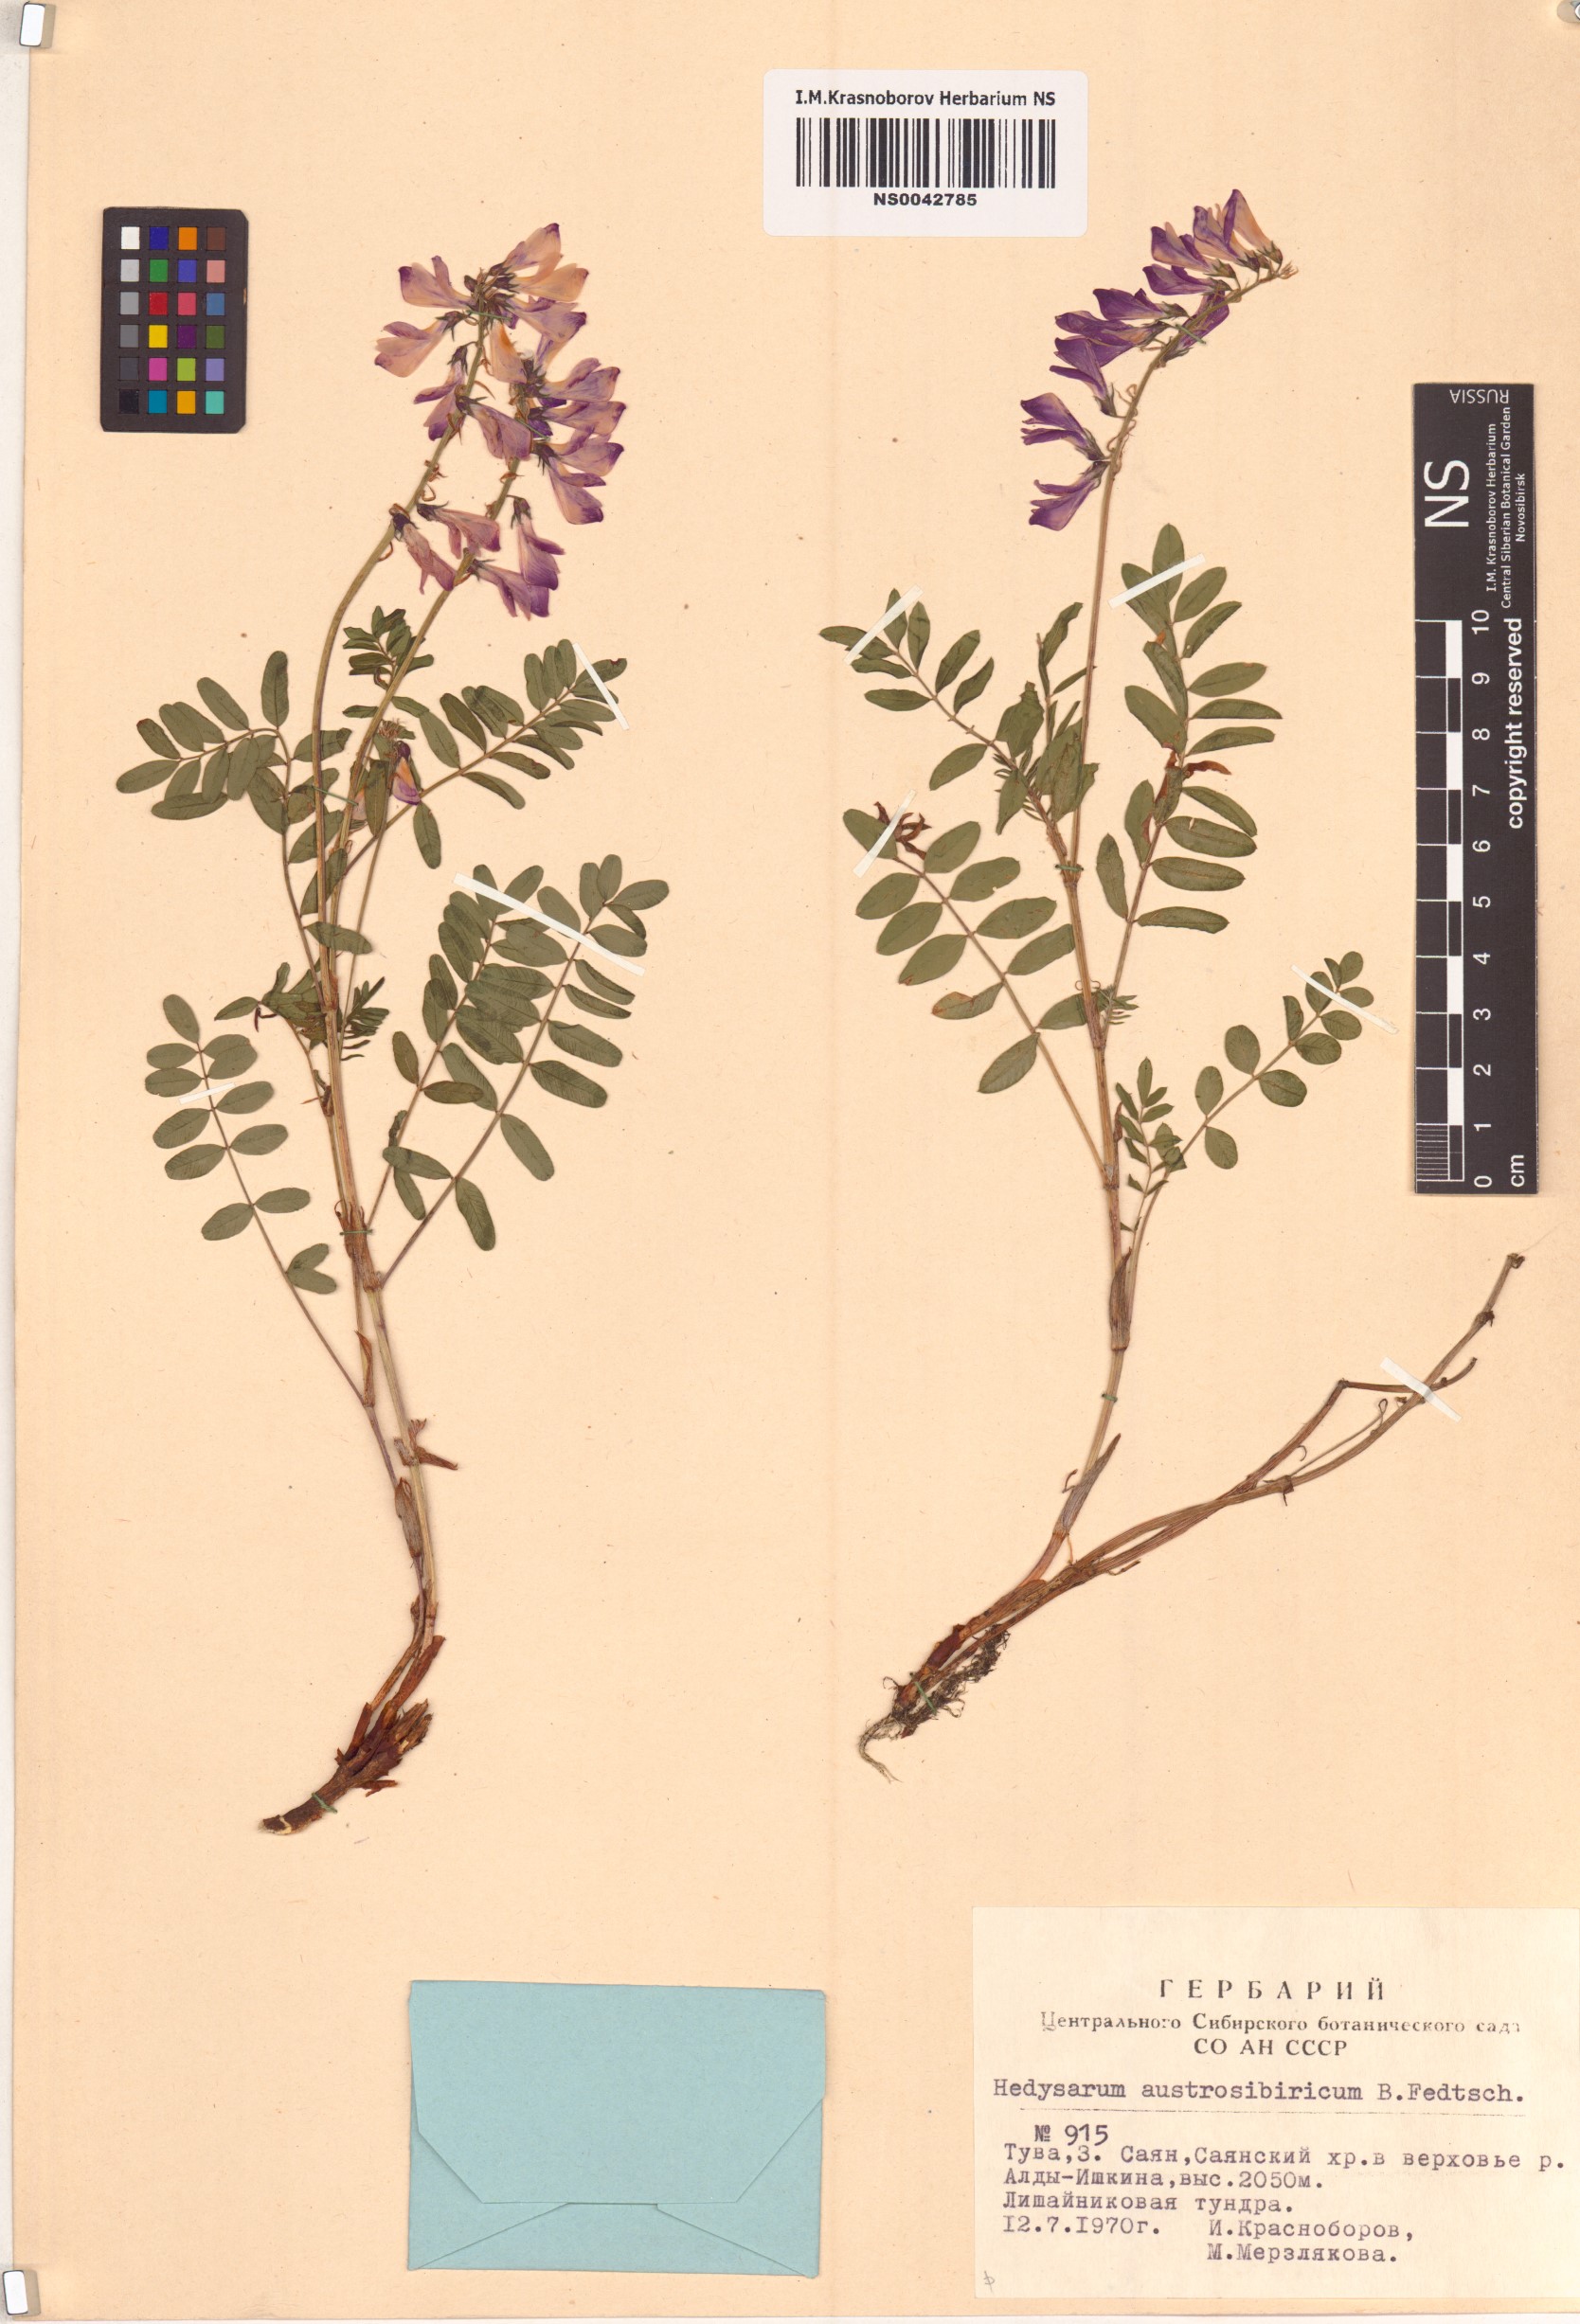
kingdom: Plantae
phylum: Tracheophyta
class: Magnoliopsida
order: Fabales
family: Fabaceae
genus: Hedysarum
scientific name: Hedysarum neglectum
